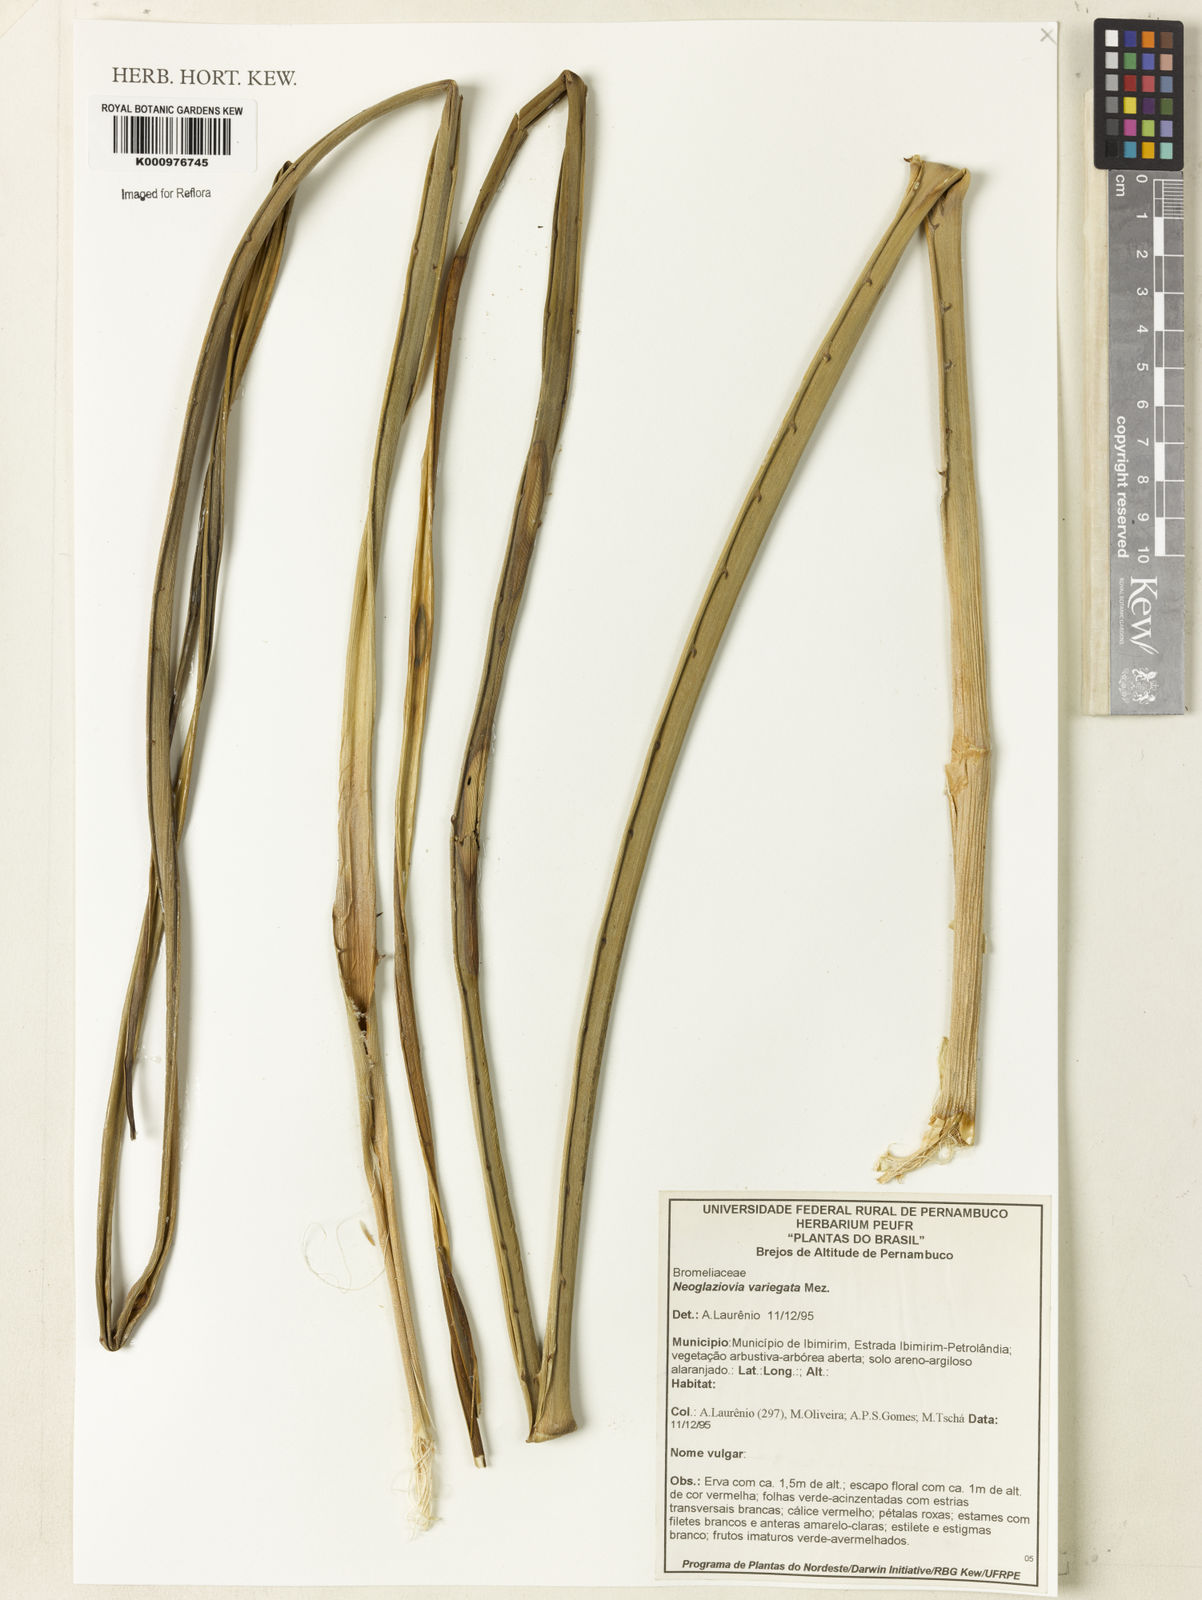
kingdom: Plantae
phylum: Tracheophyta
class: Liliopsida
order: Poales
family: Bromeliaceae
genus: Neoglaziovia
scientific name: Neoglaziovia variegata
